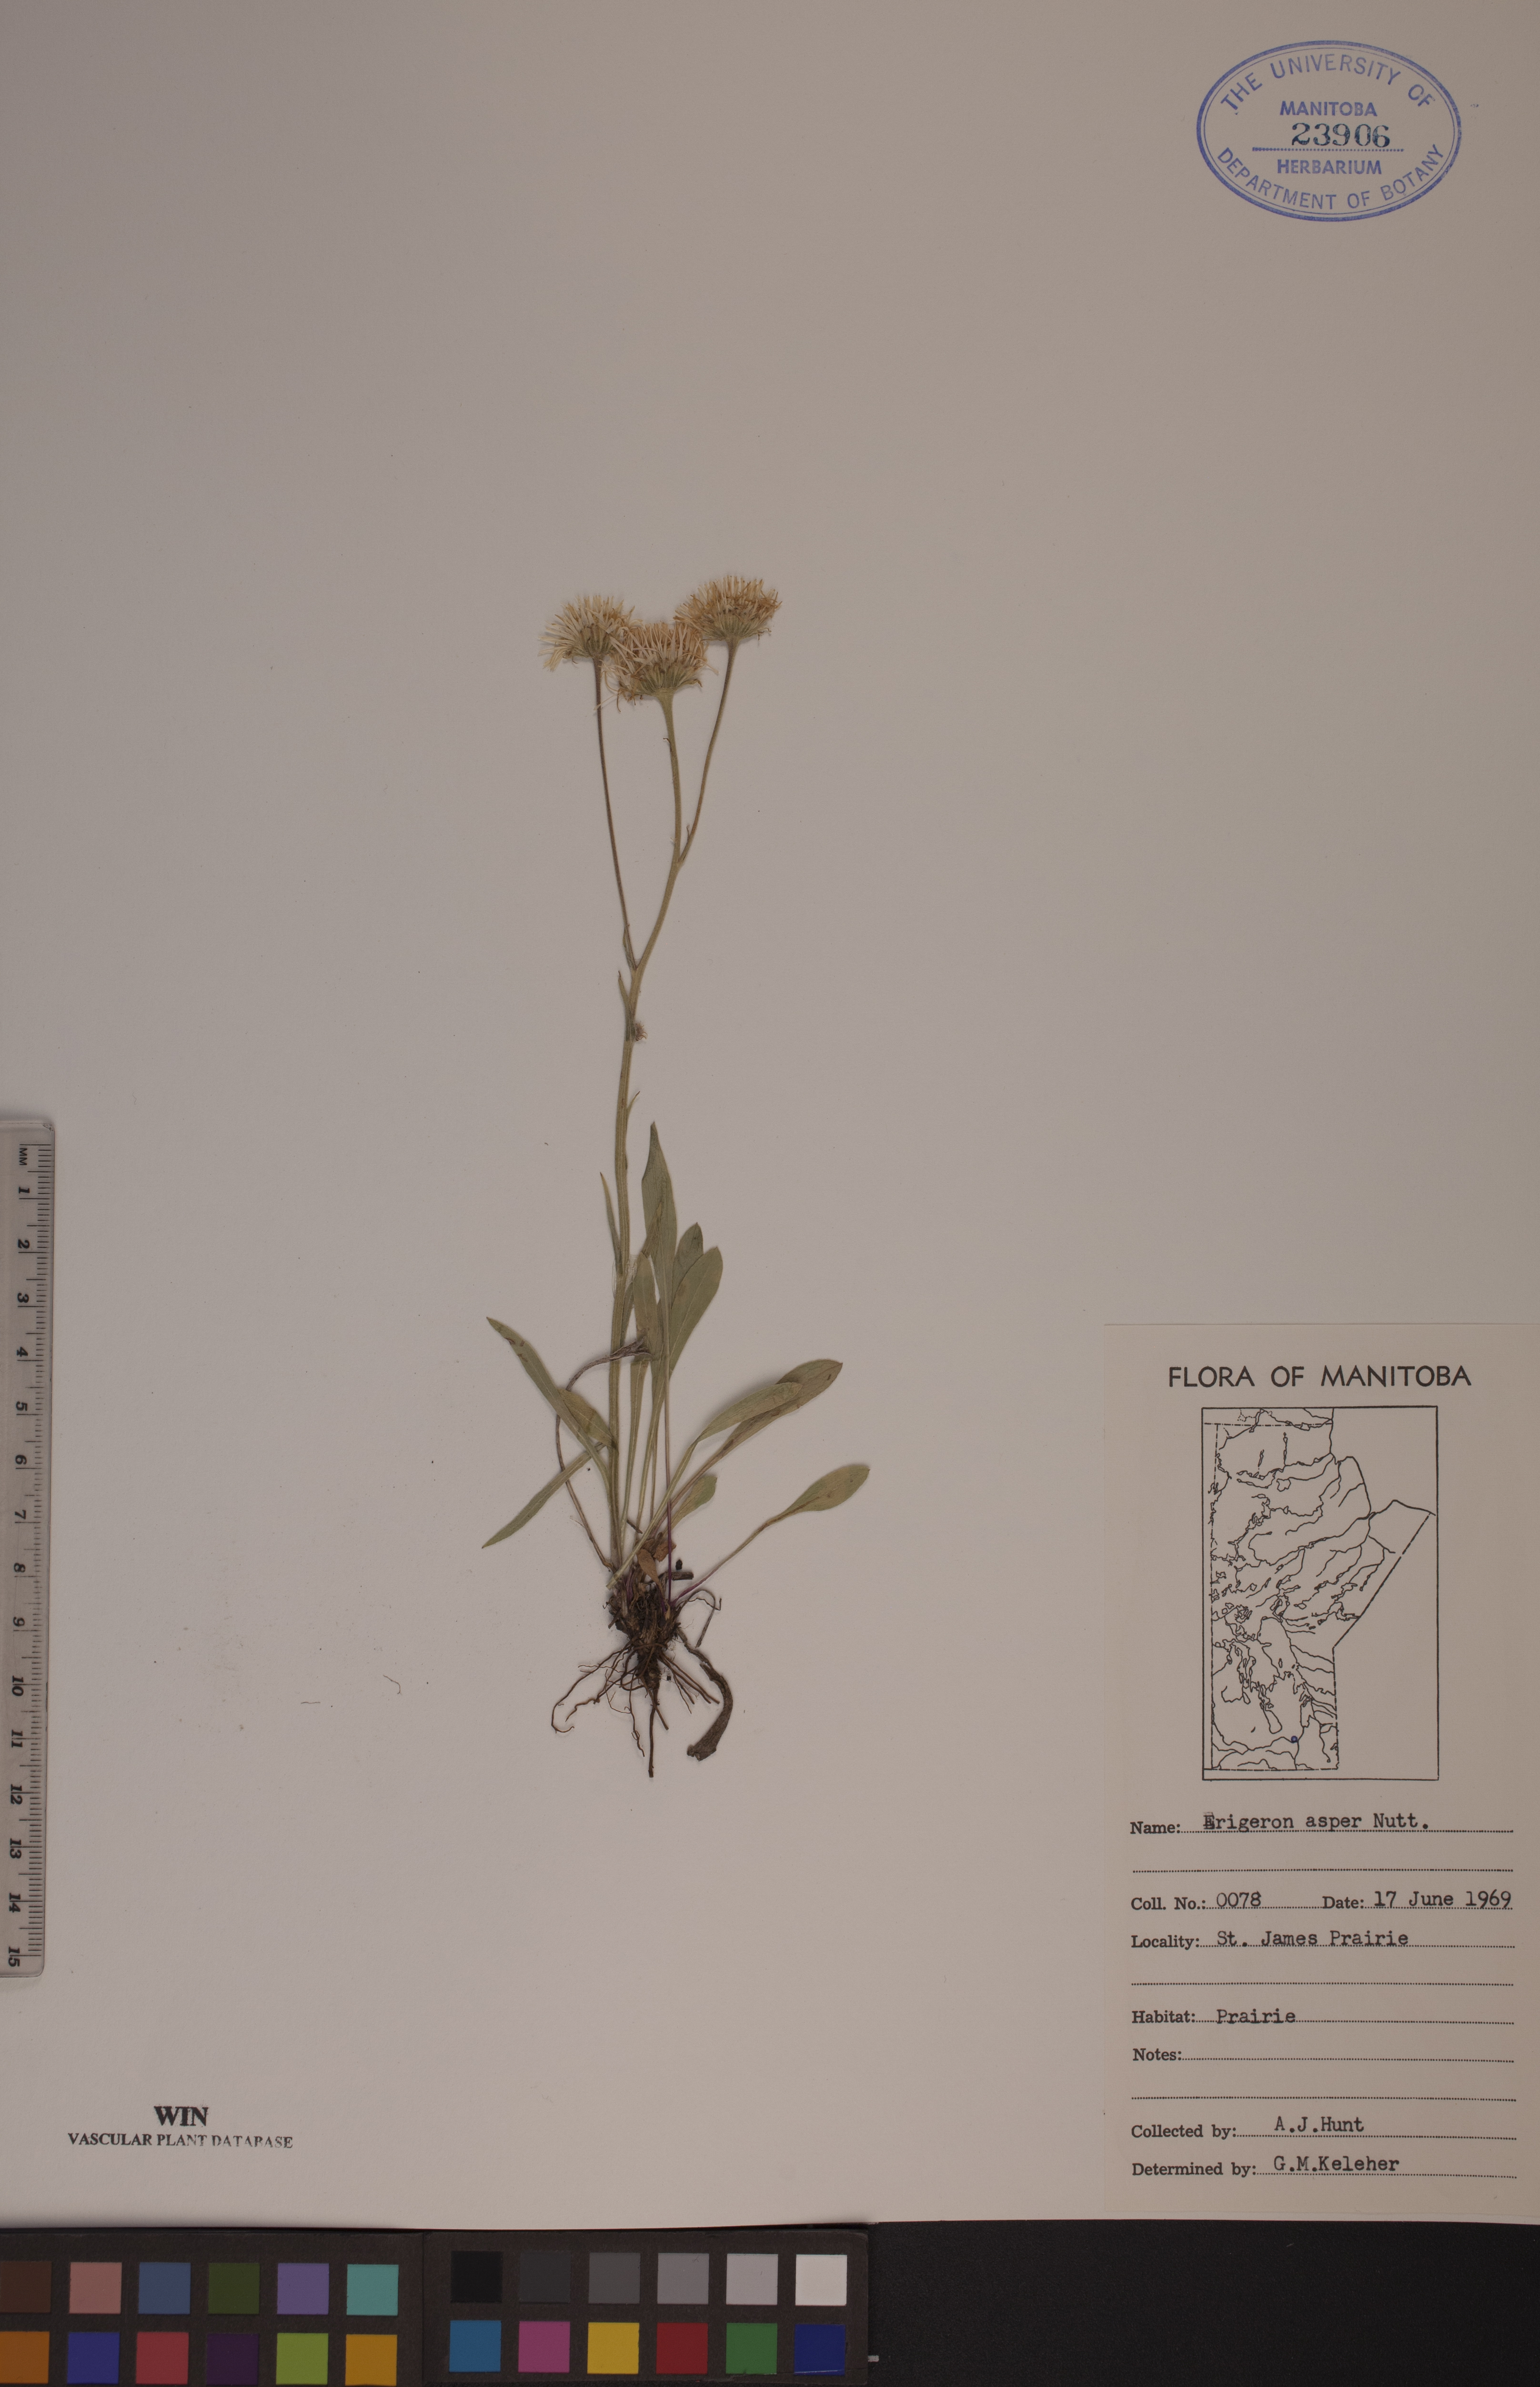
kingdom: Plantae
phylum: Tracheophyta
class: Magnoliopsida
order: Asterales
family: Asteraceae
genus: Erigeron
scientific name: Erigeron glabellus
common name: Smooth fleabane
